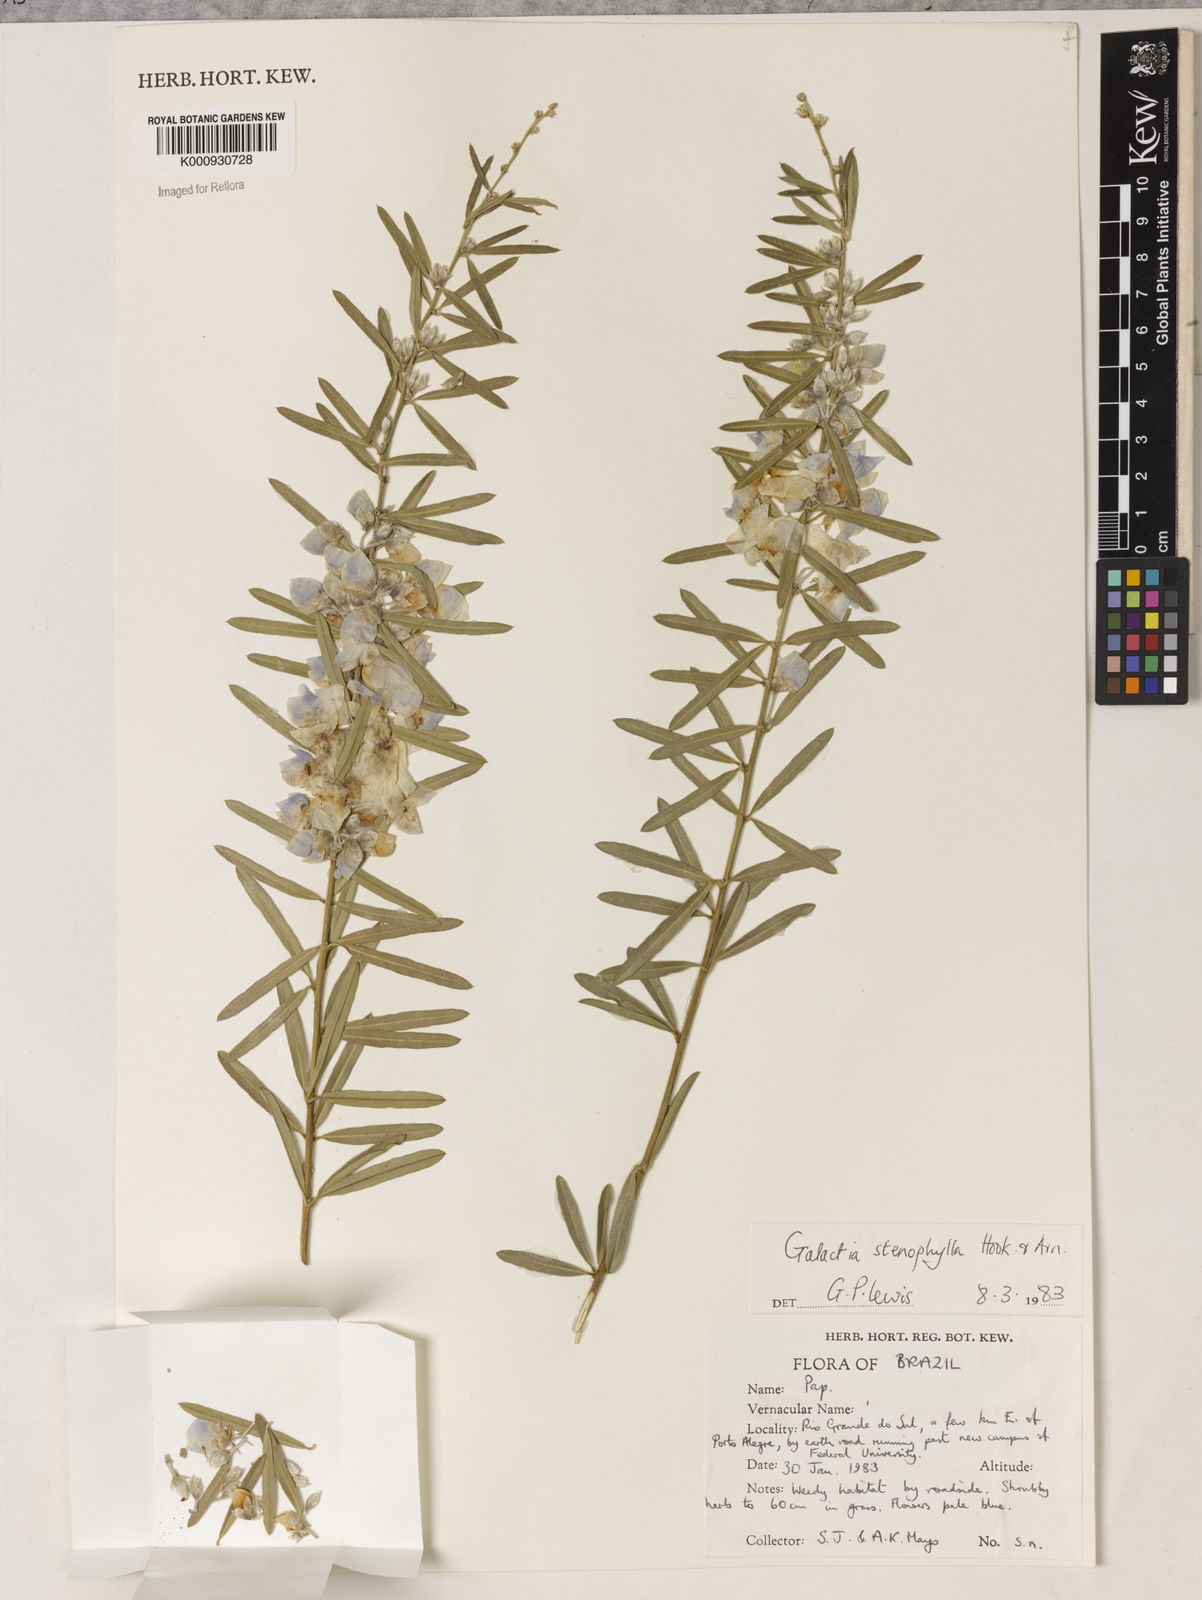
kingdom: Plantae
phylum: Tracheophyta
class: Liliopsida
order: Asparagales
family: Orchidaceae
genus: Pelexia
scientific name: Pelexia
